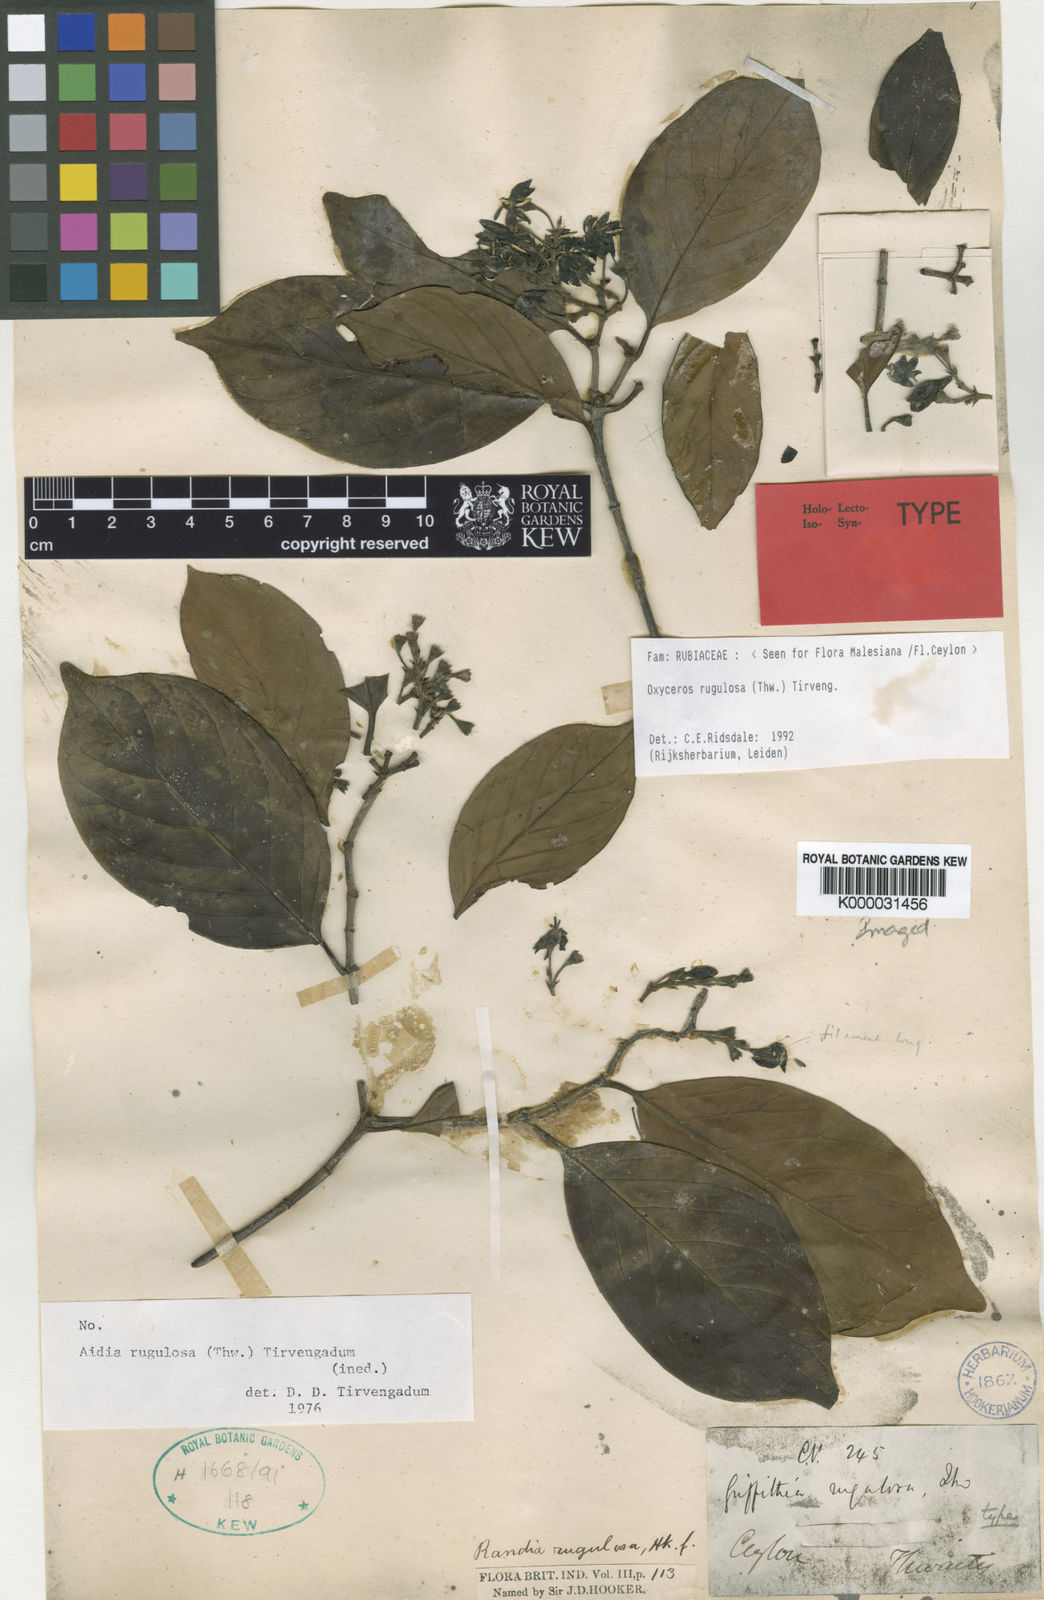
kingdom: Plantae
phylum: Tracheophyta
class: Magnoliopsida
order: Gentianales
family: Rubiaceae
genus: Oxyceros
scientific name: Oxyceros rugulosus
